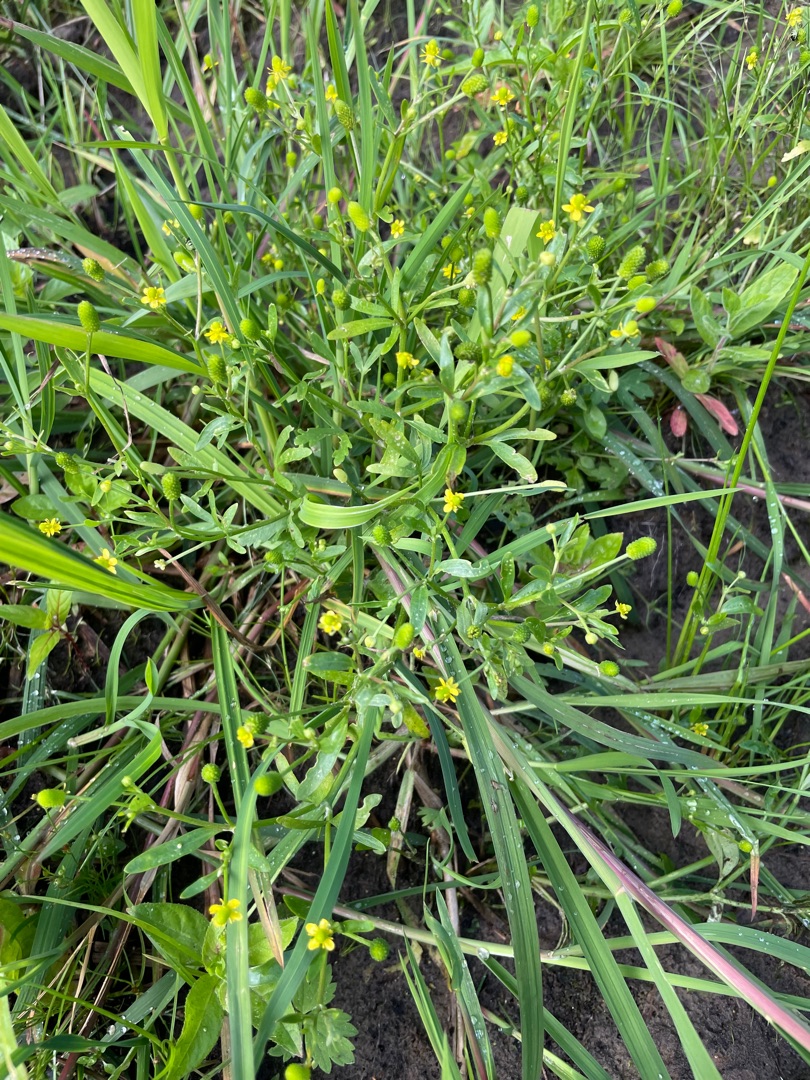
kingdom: Plantae
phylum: Tracheophyta
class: Magnoliopsida
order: Ranunculales
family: Ranunculaceae
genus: Ranunculus
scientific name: Ranunculus sceleratus
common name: Tigger-ranunkel
